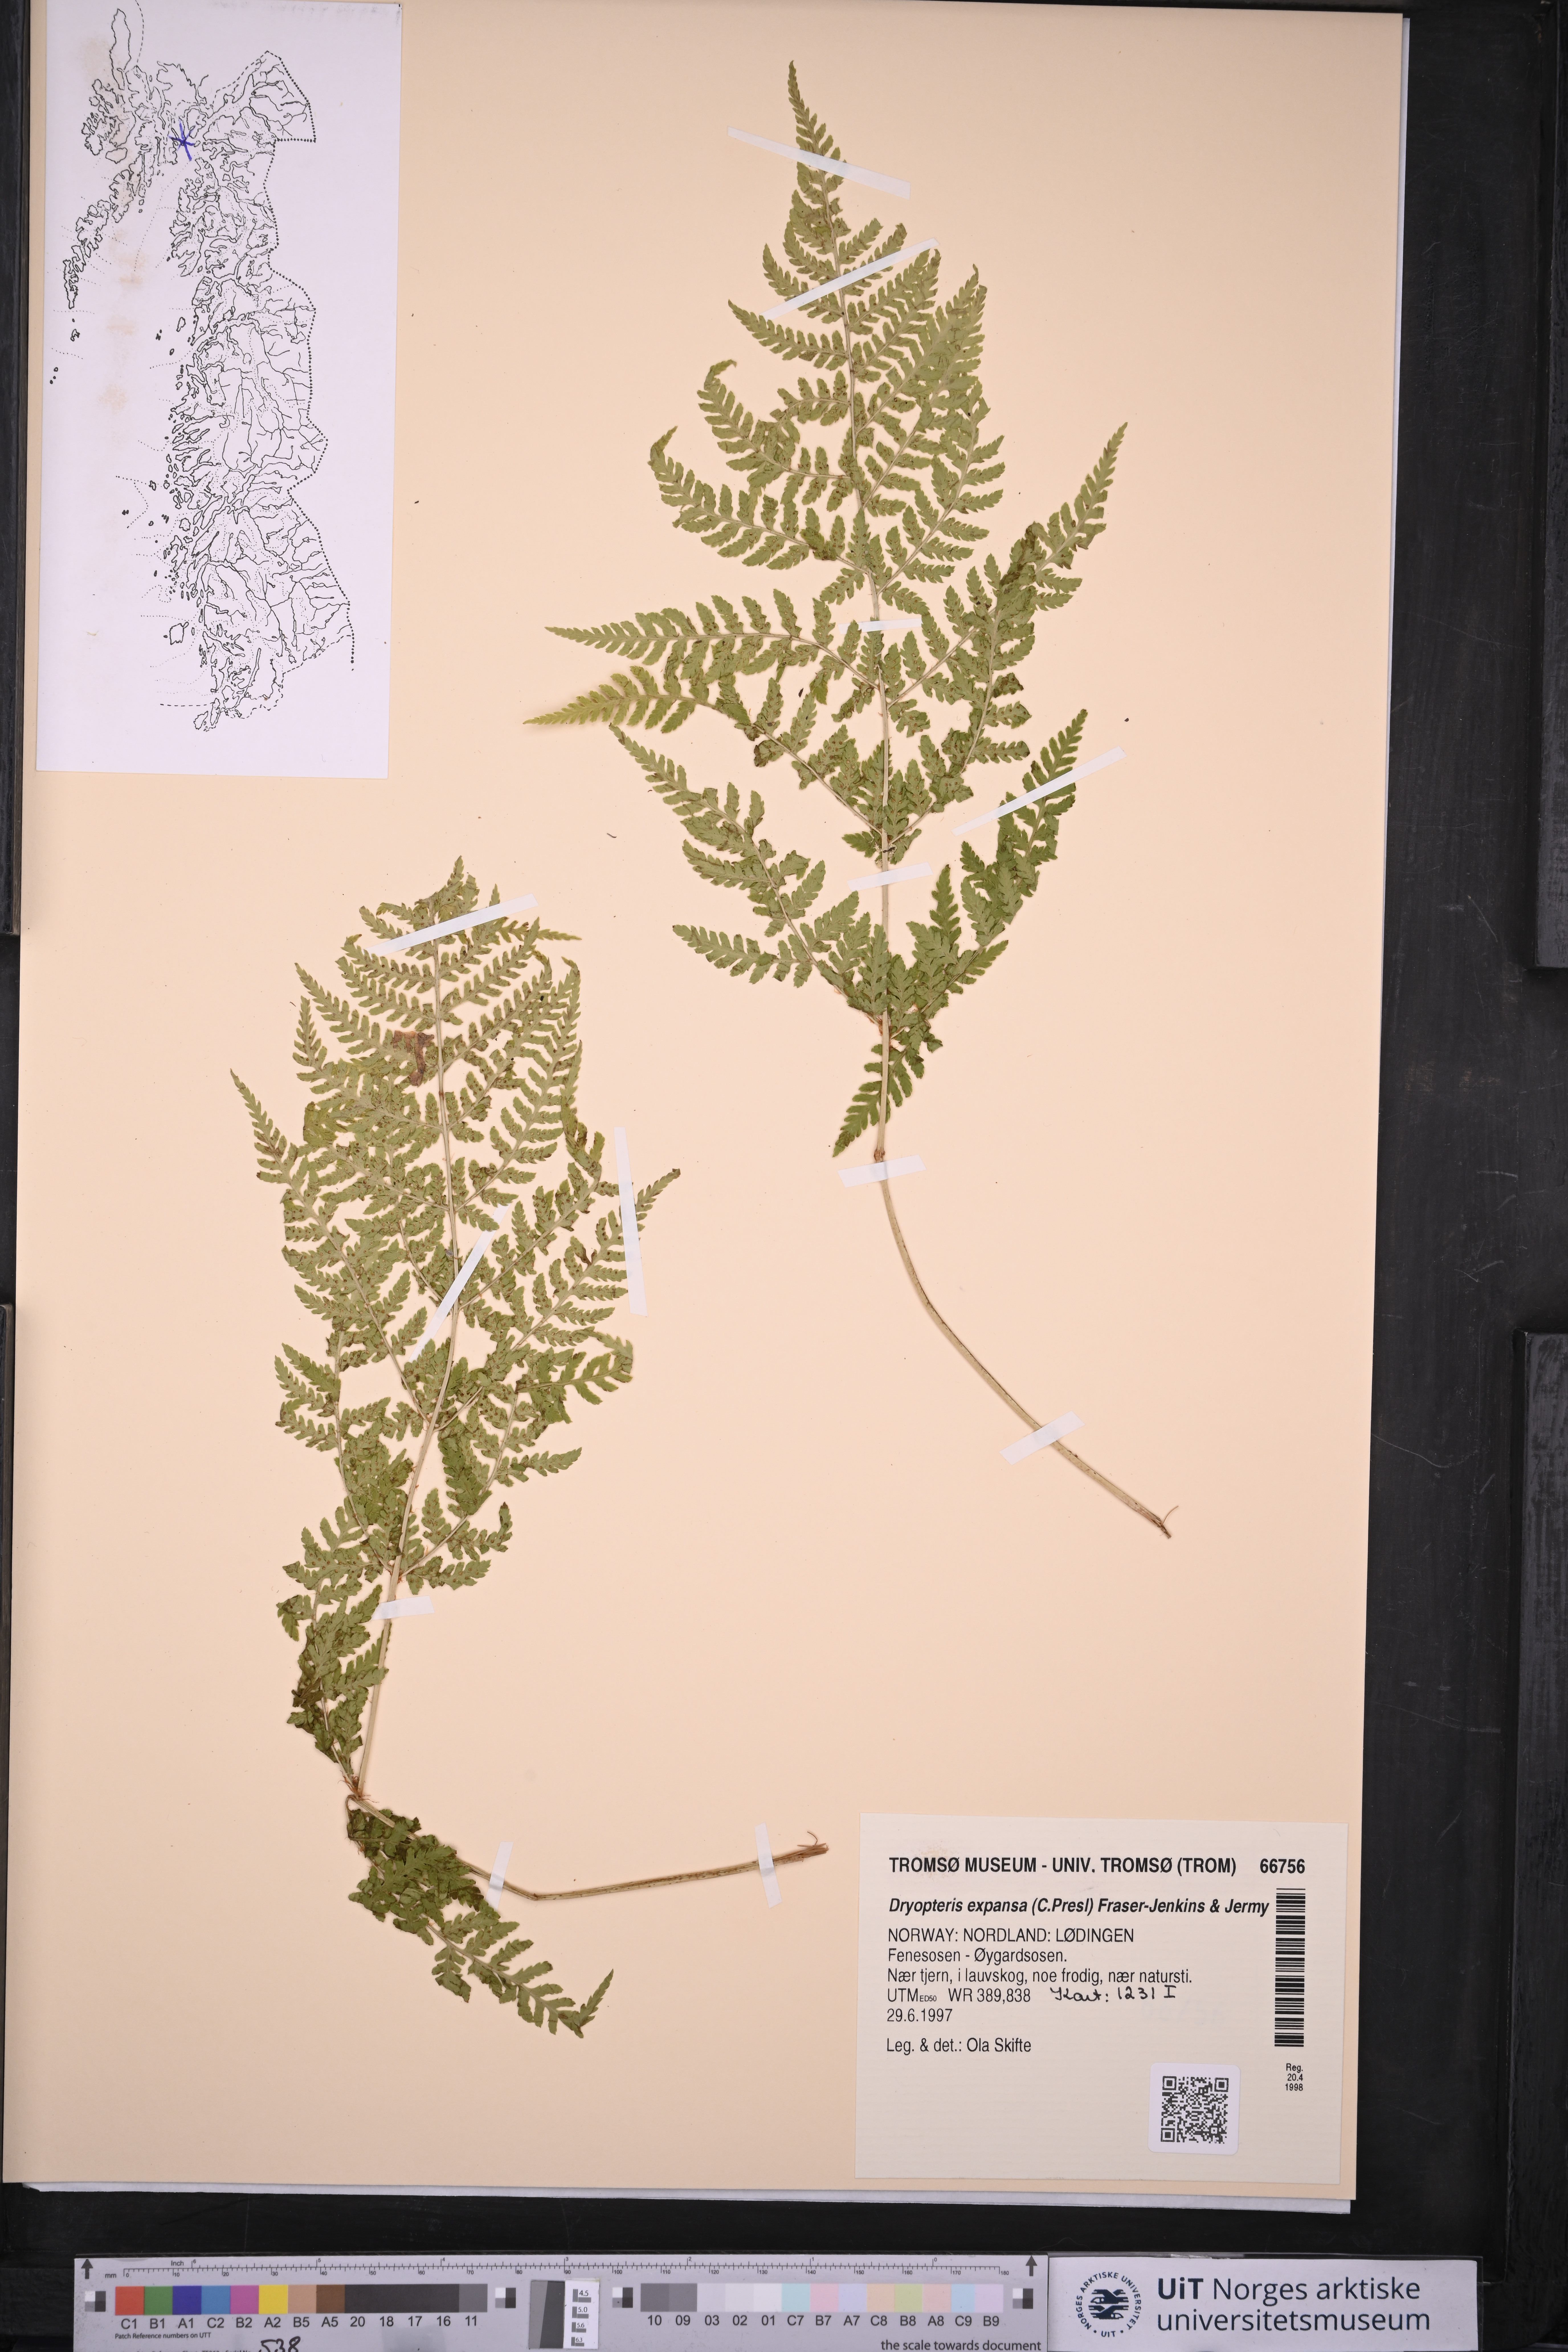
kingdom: Plantae
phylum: Tracheophyta
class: Polypodiopsida
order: Polypodiales
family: Dryopteridaceae
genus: Dryopteris
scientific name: Dryopteris expansa
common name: Northern buckler fern
